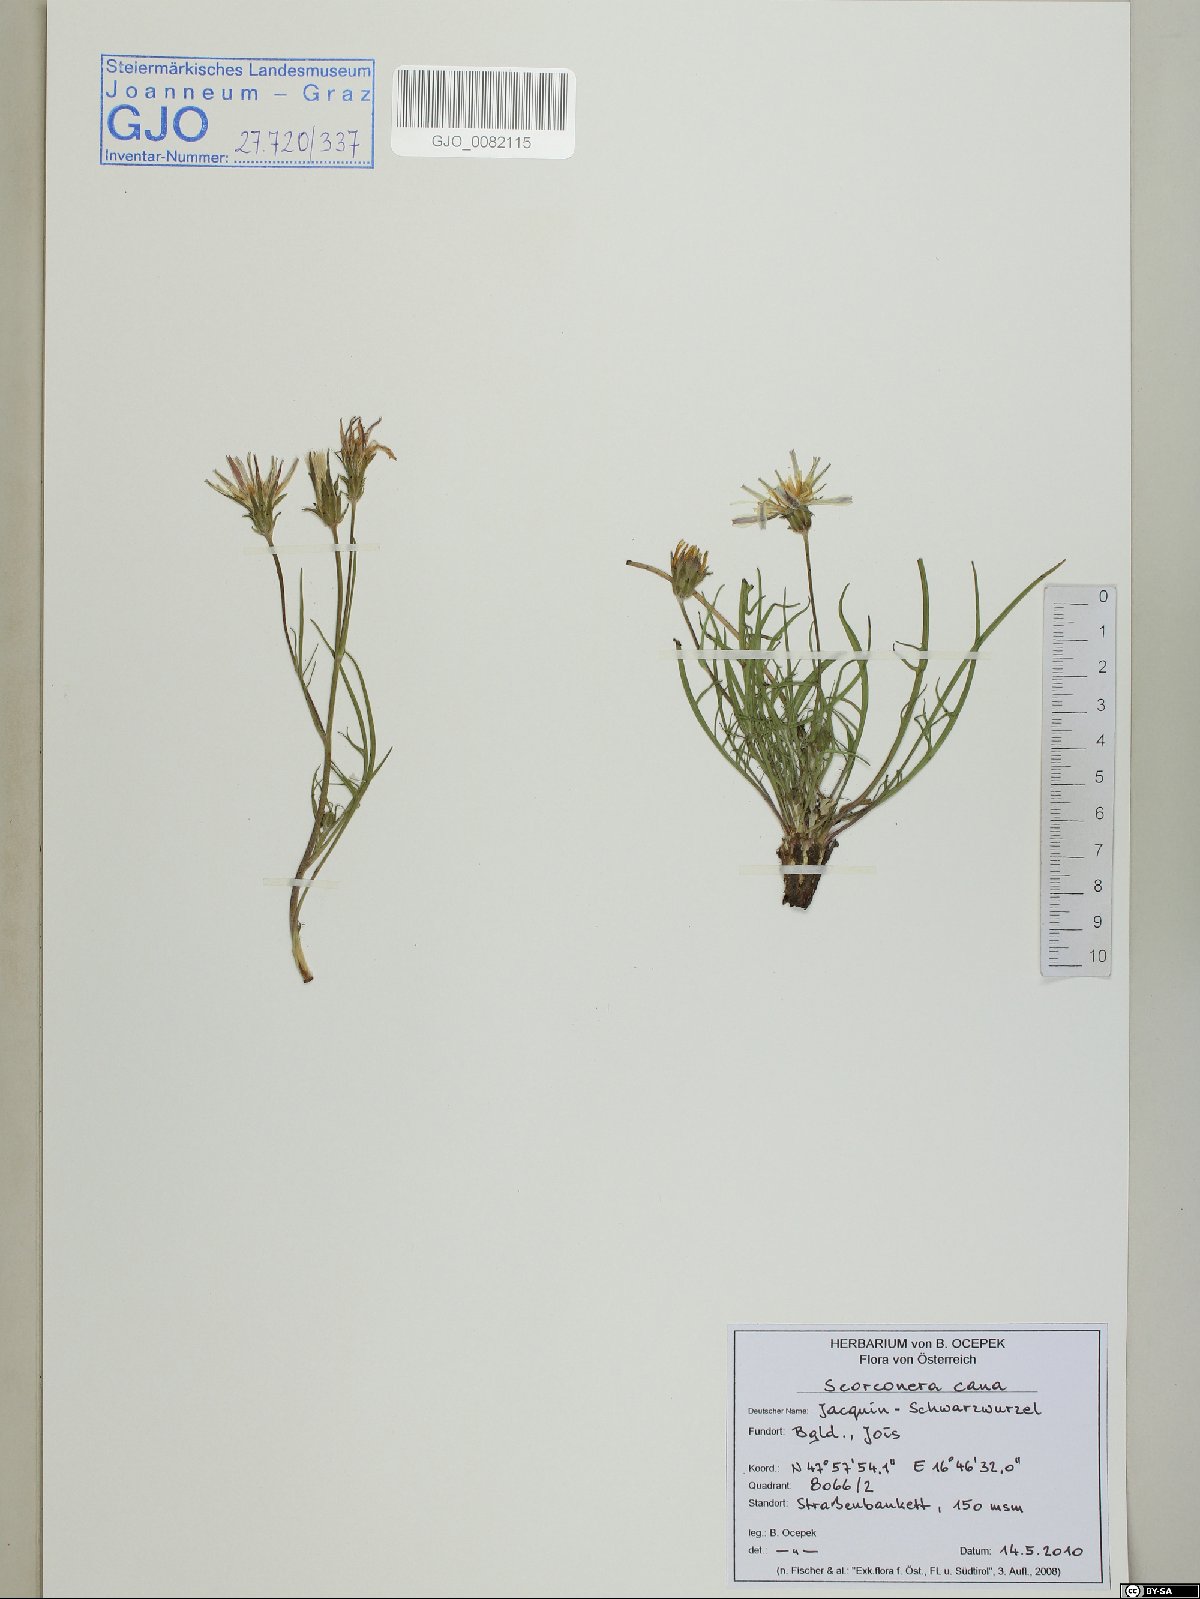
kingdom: Plantae
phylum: Tracheophyta
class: Magnoliopsida
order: Asterales
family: Asteraceae
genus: Scorzonera
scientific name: Scorzonera cana
